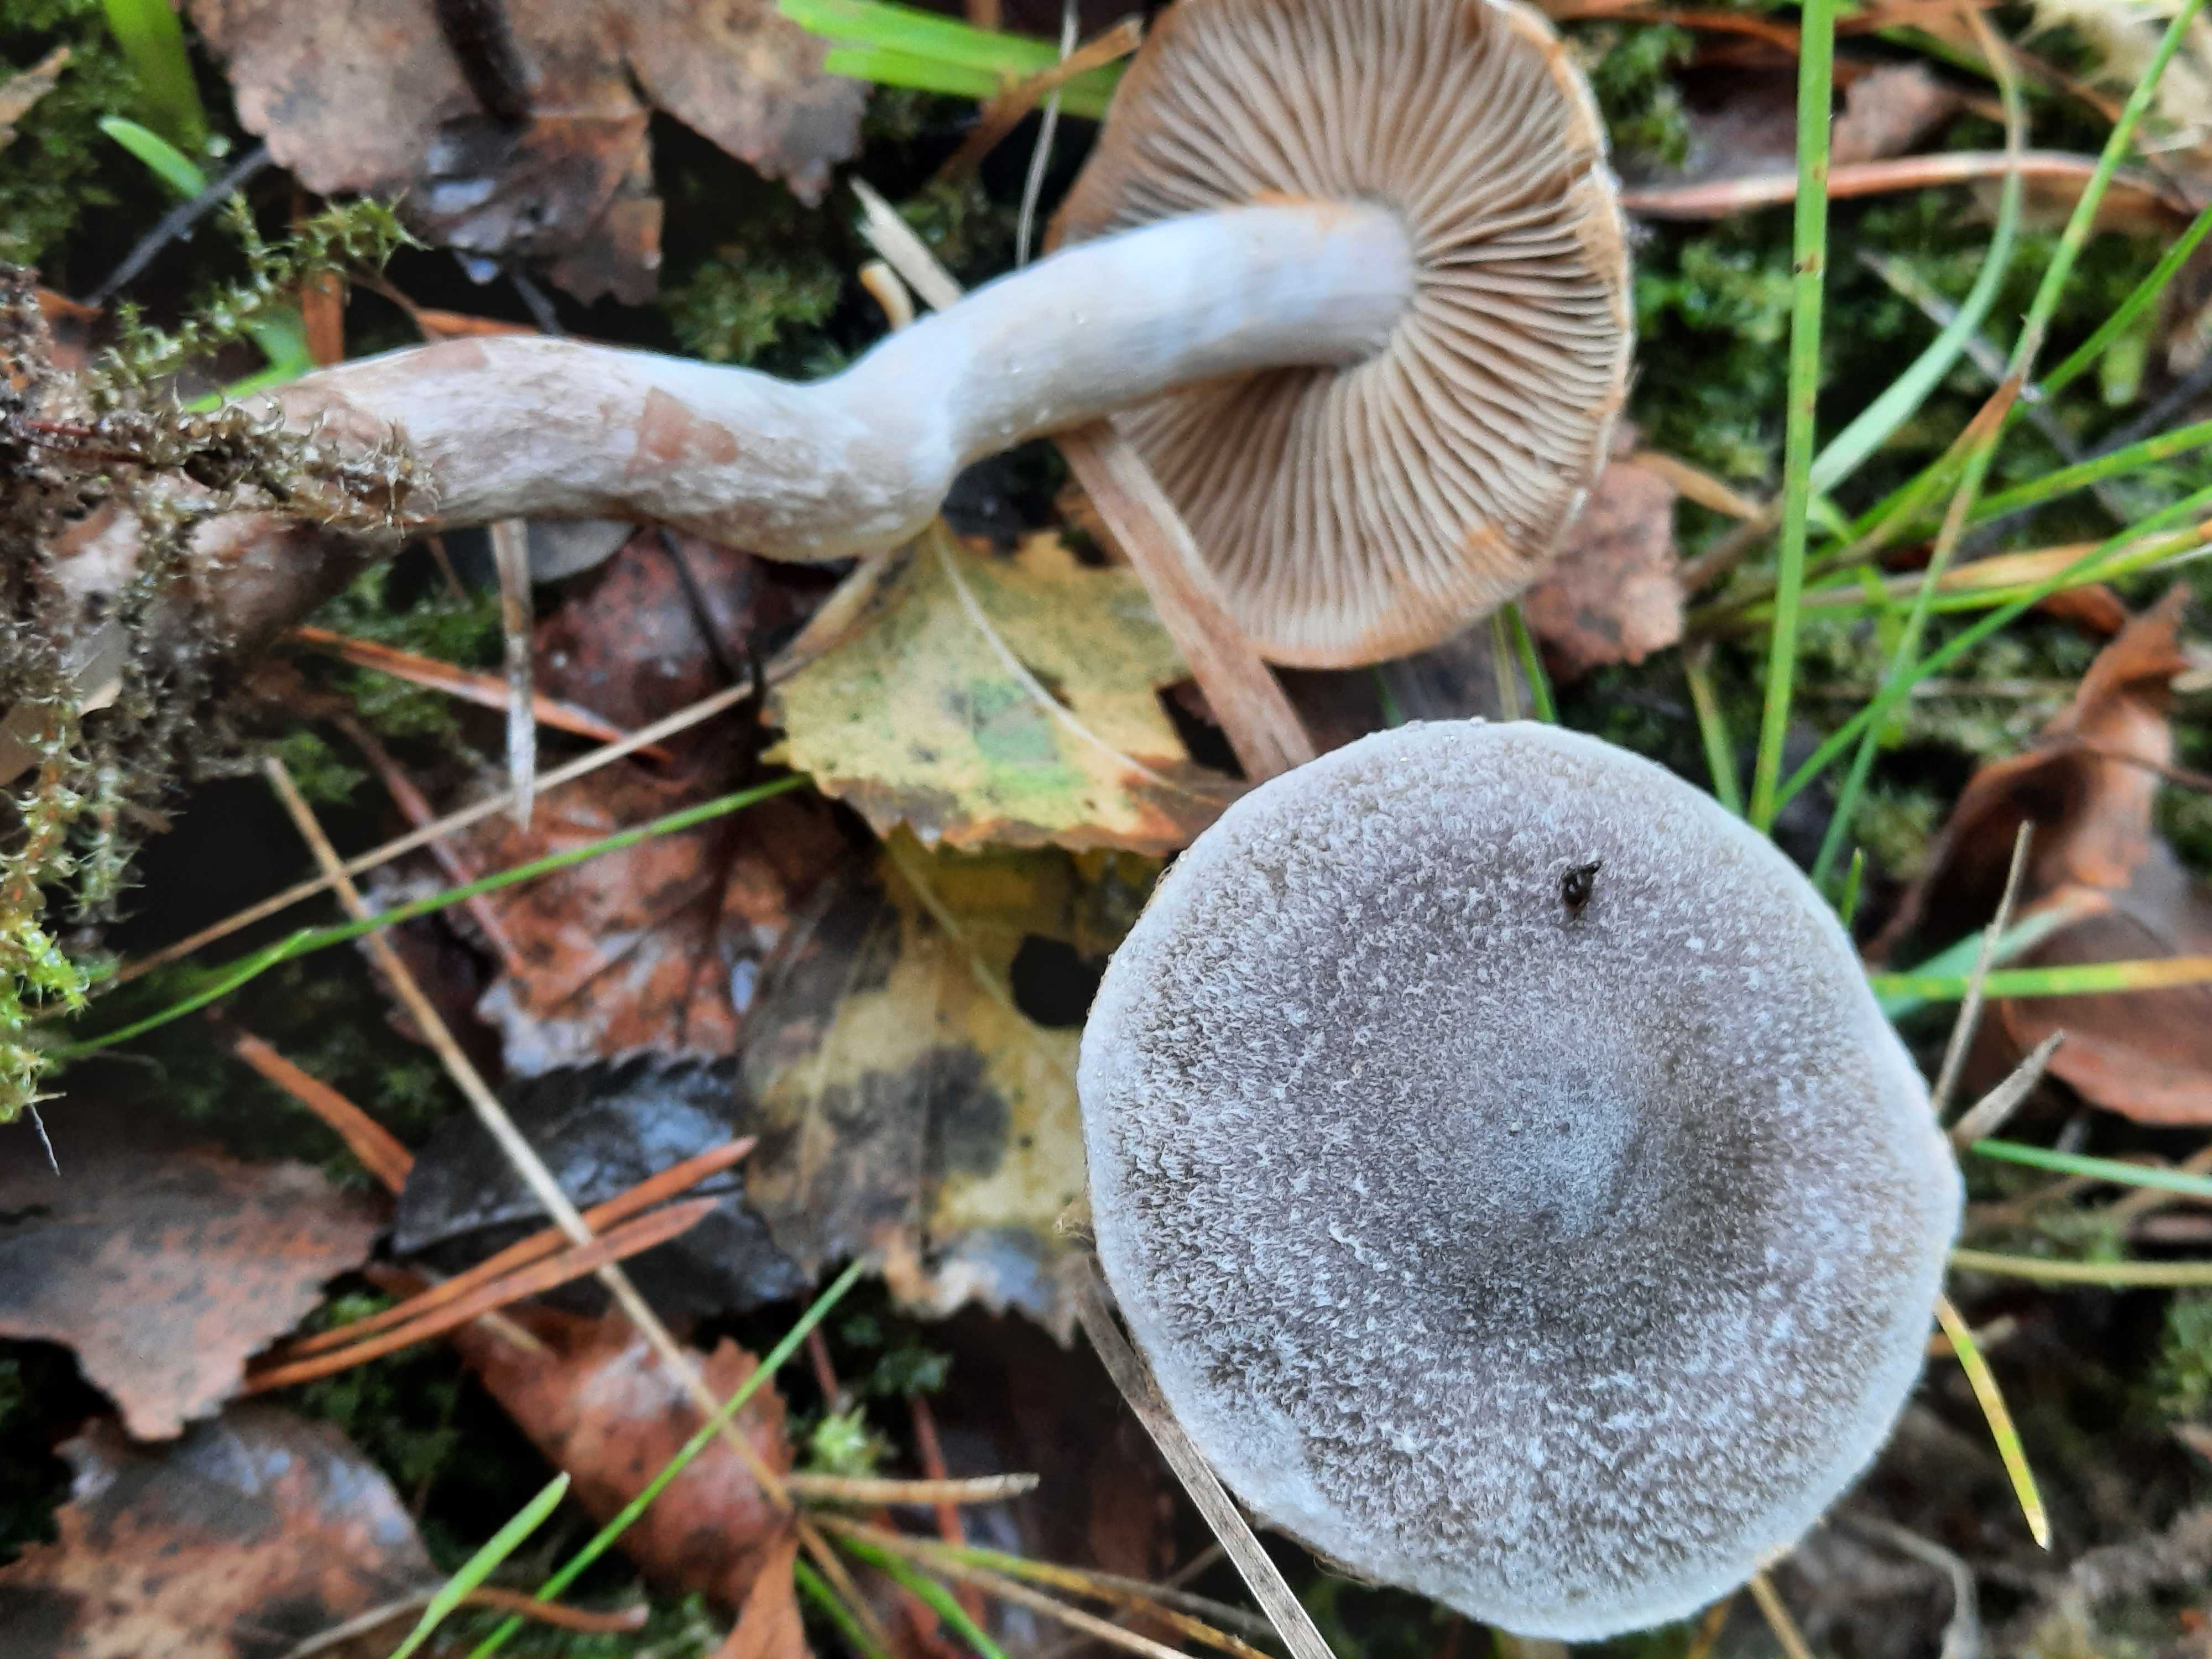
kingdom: Fungi
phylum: Basidiomycota
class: Agaricomycetes
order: Agaricales
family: Cortinariaceae
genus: Cortinarius
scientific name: Cortinarius hemitrichus
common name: hvidfnugget slørhat
